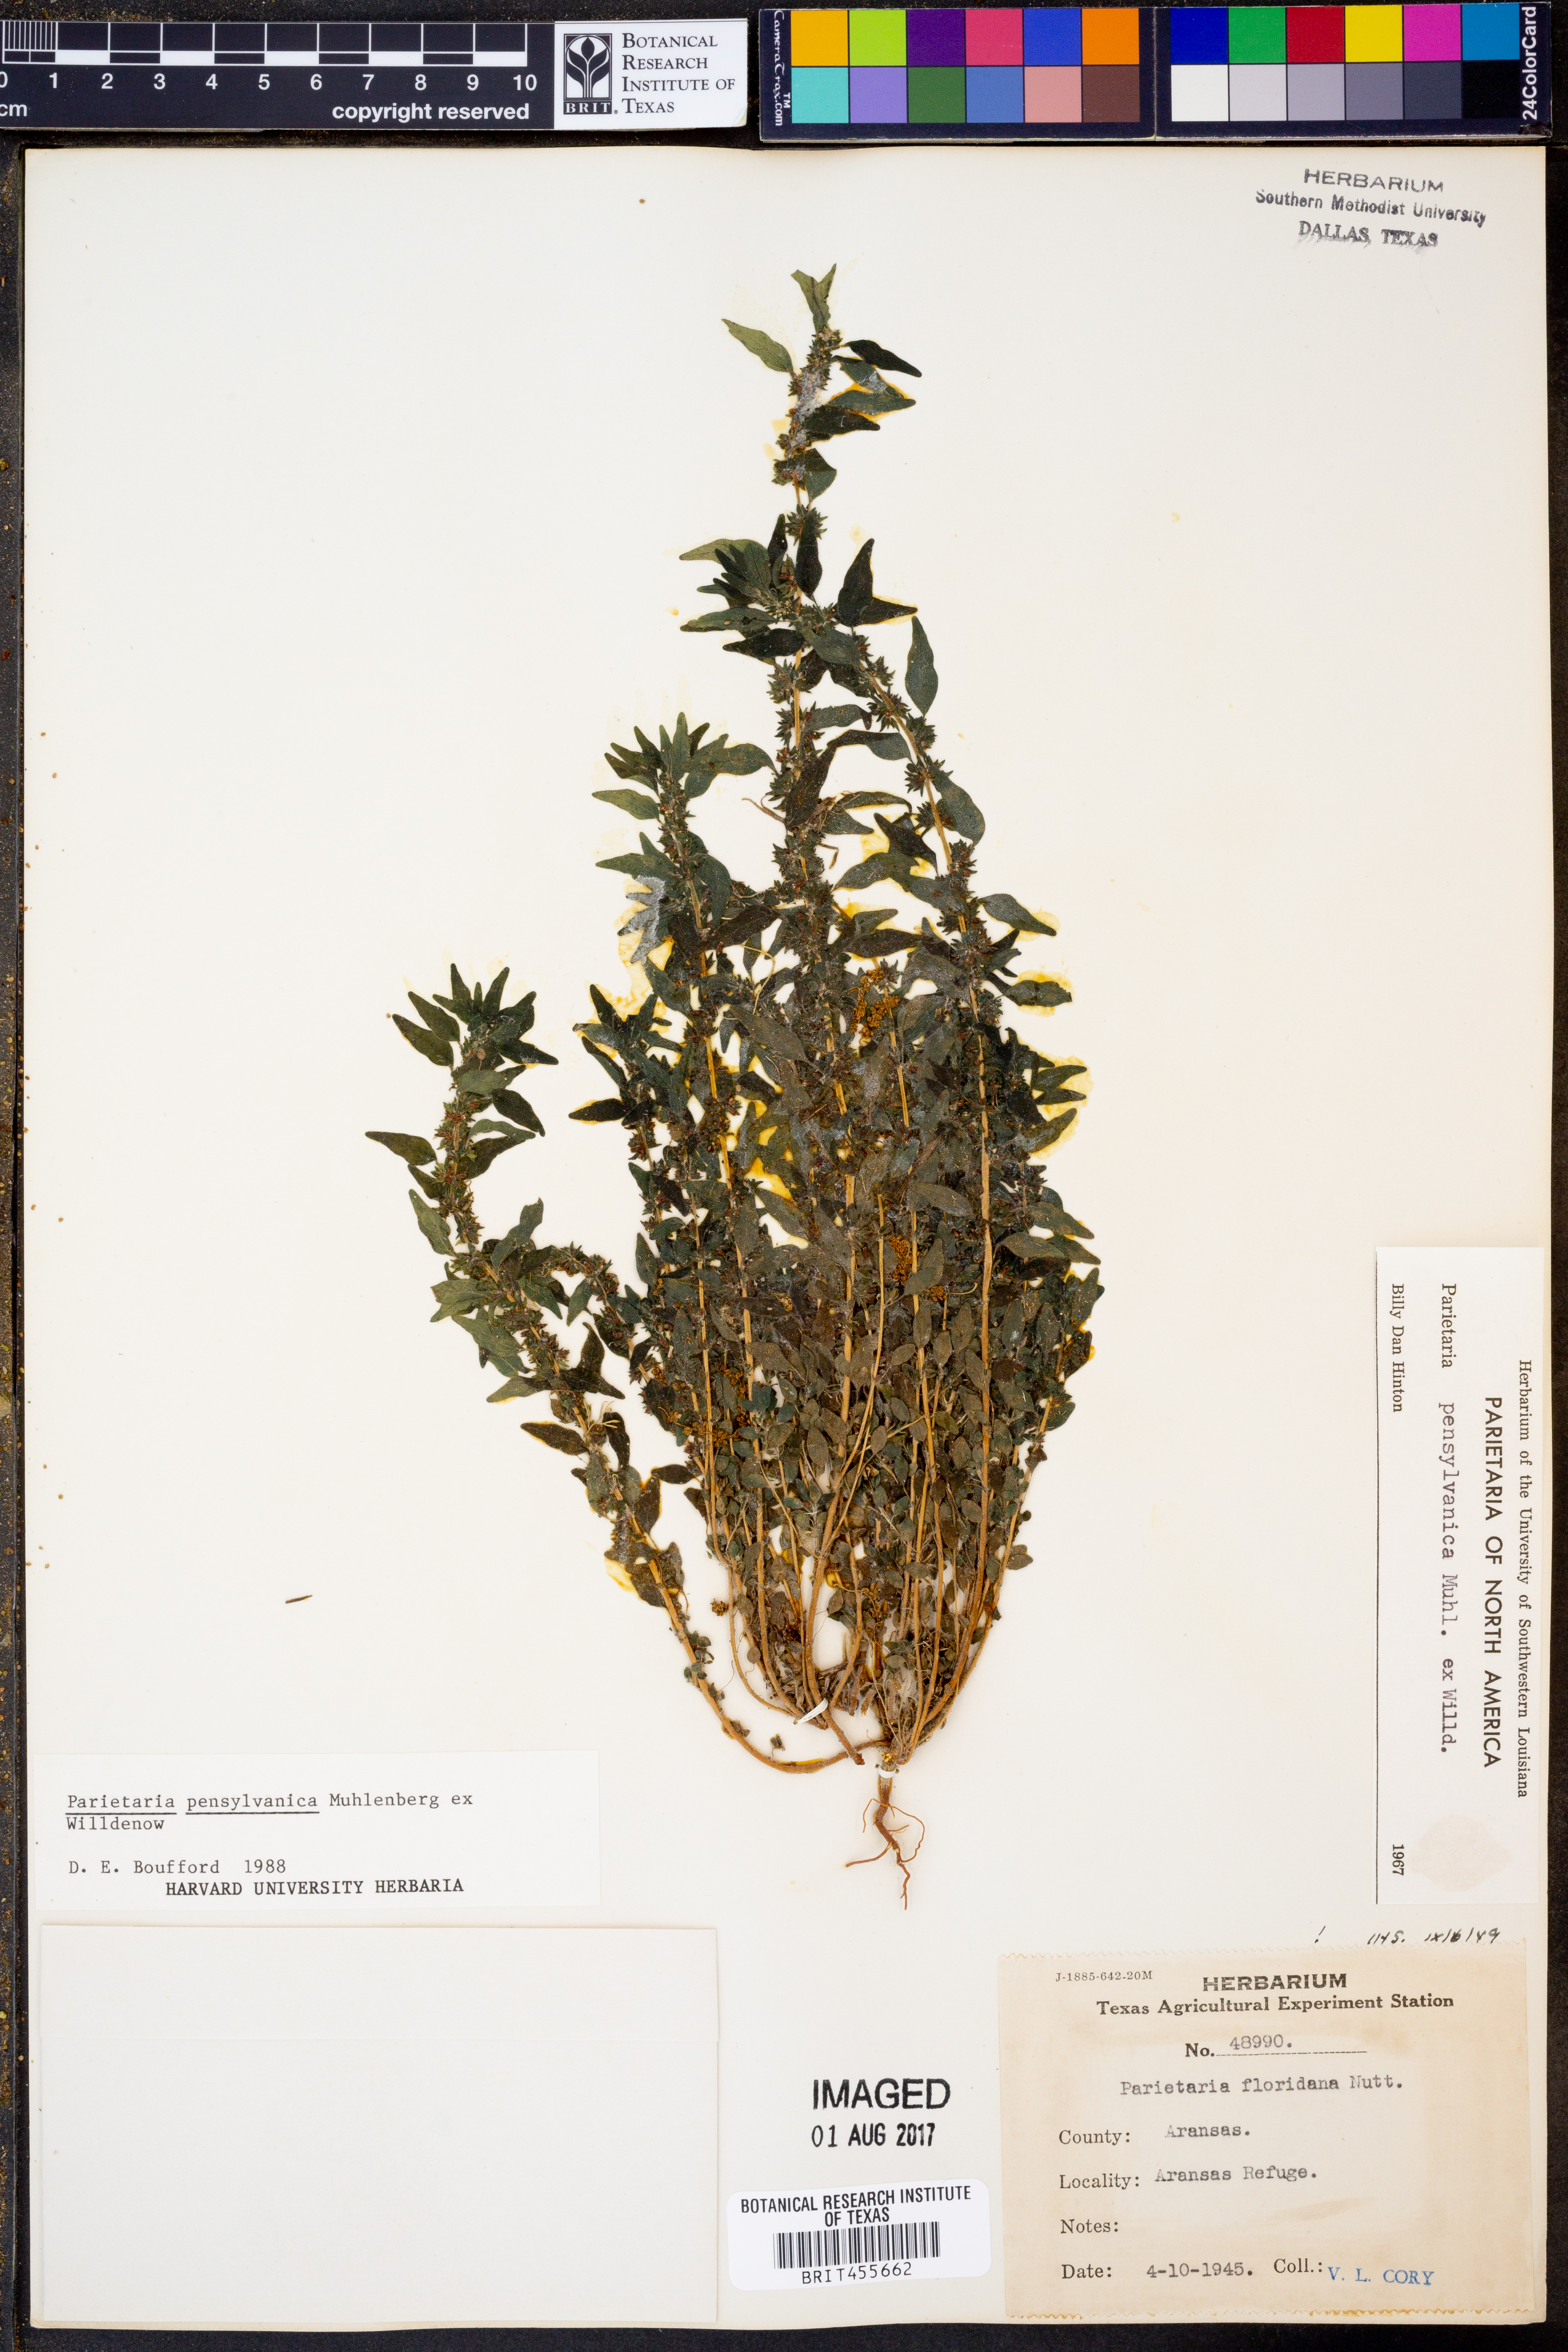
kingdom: Plantae
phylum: Tracheophyta
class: Magnoliopsida
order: Rosales
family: Urticaceae
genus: Parietaria
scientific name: Parietaria pensylvanica
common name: Pennsylvania pellitory
